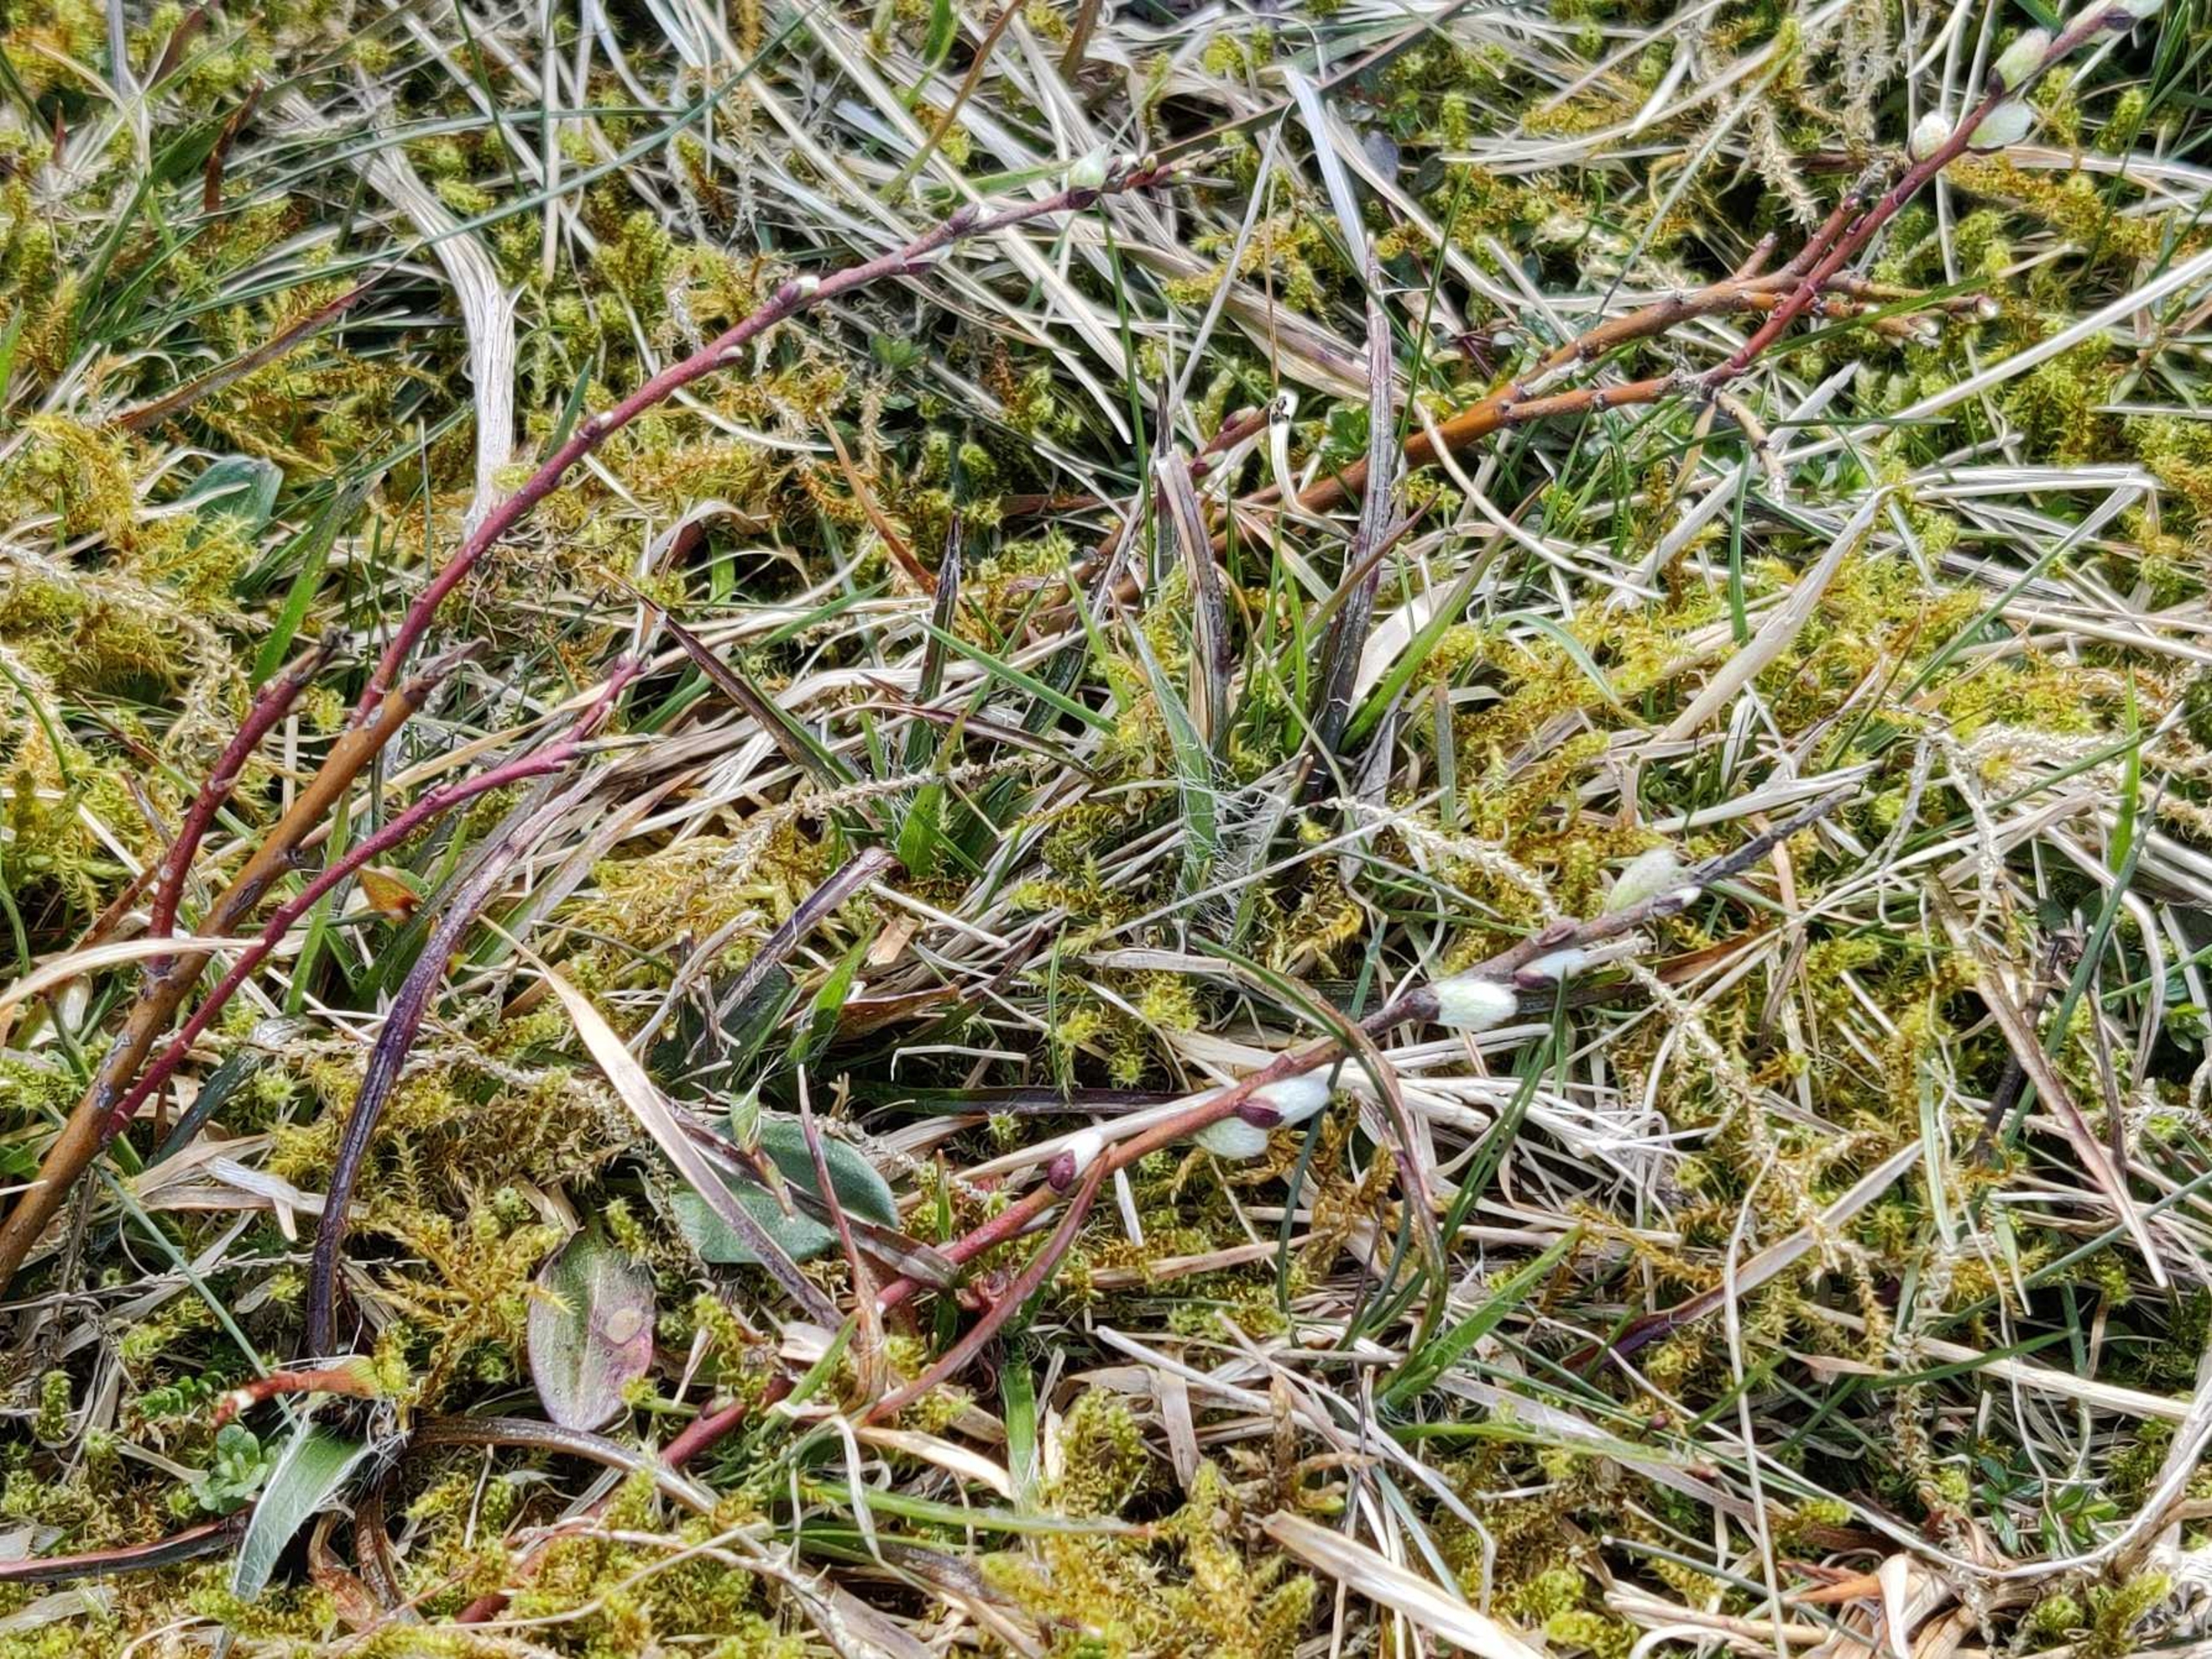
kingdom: Plantae
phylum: Tracheophyta
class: Magnoliopsida
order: Malpighiales
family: Salicaceae
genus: Salix
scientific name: Salix repens
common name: Krybende pil
